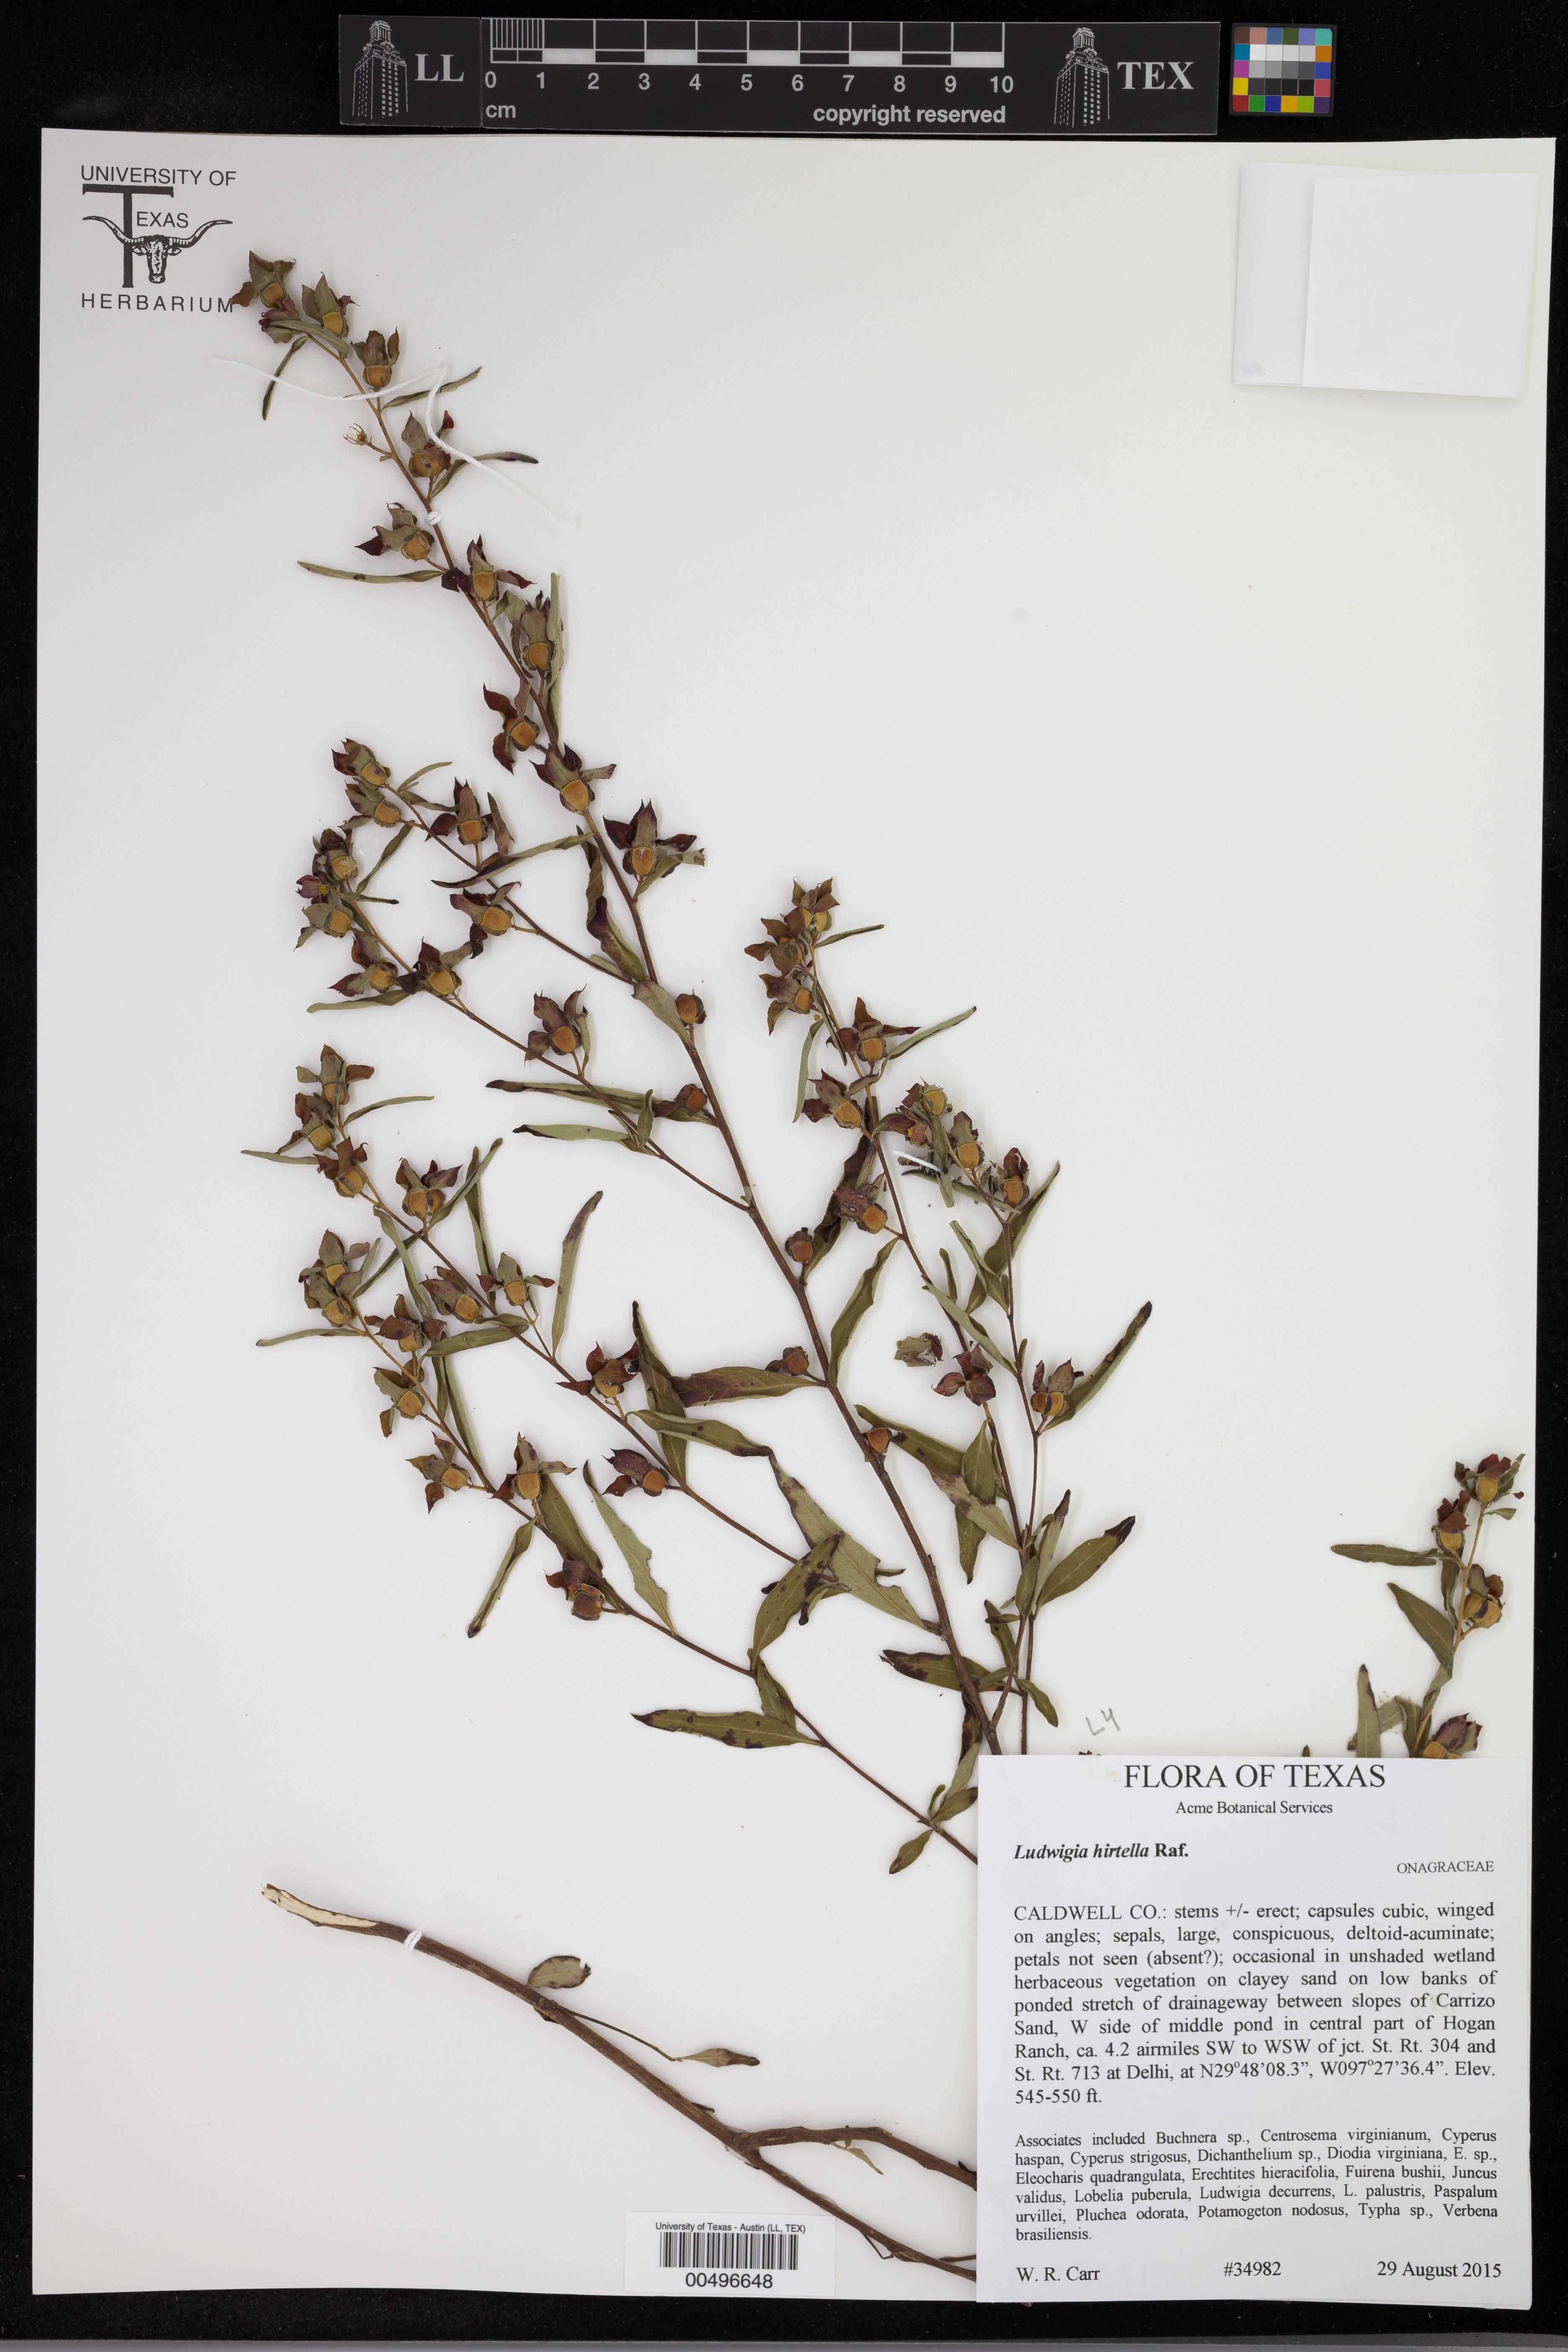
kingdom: Plantae
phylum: Tracheophyta
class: Magnoliopsida
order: Myrtales
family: Onagraceae
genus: Ludwigia
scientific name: Ludwigia hirtella
